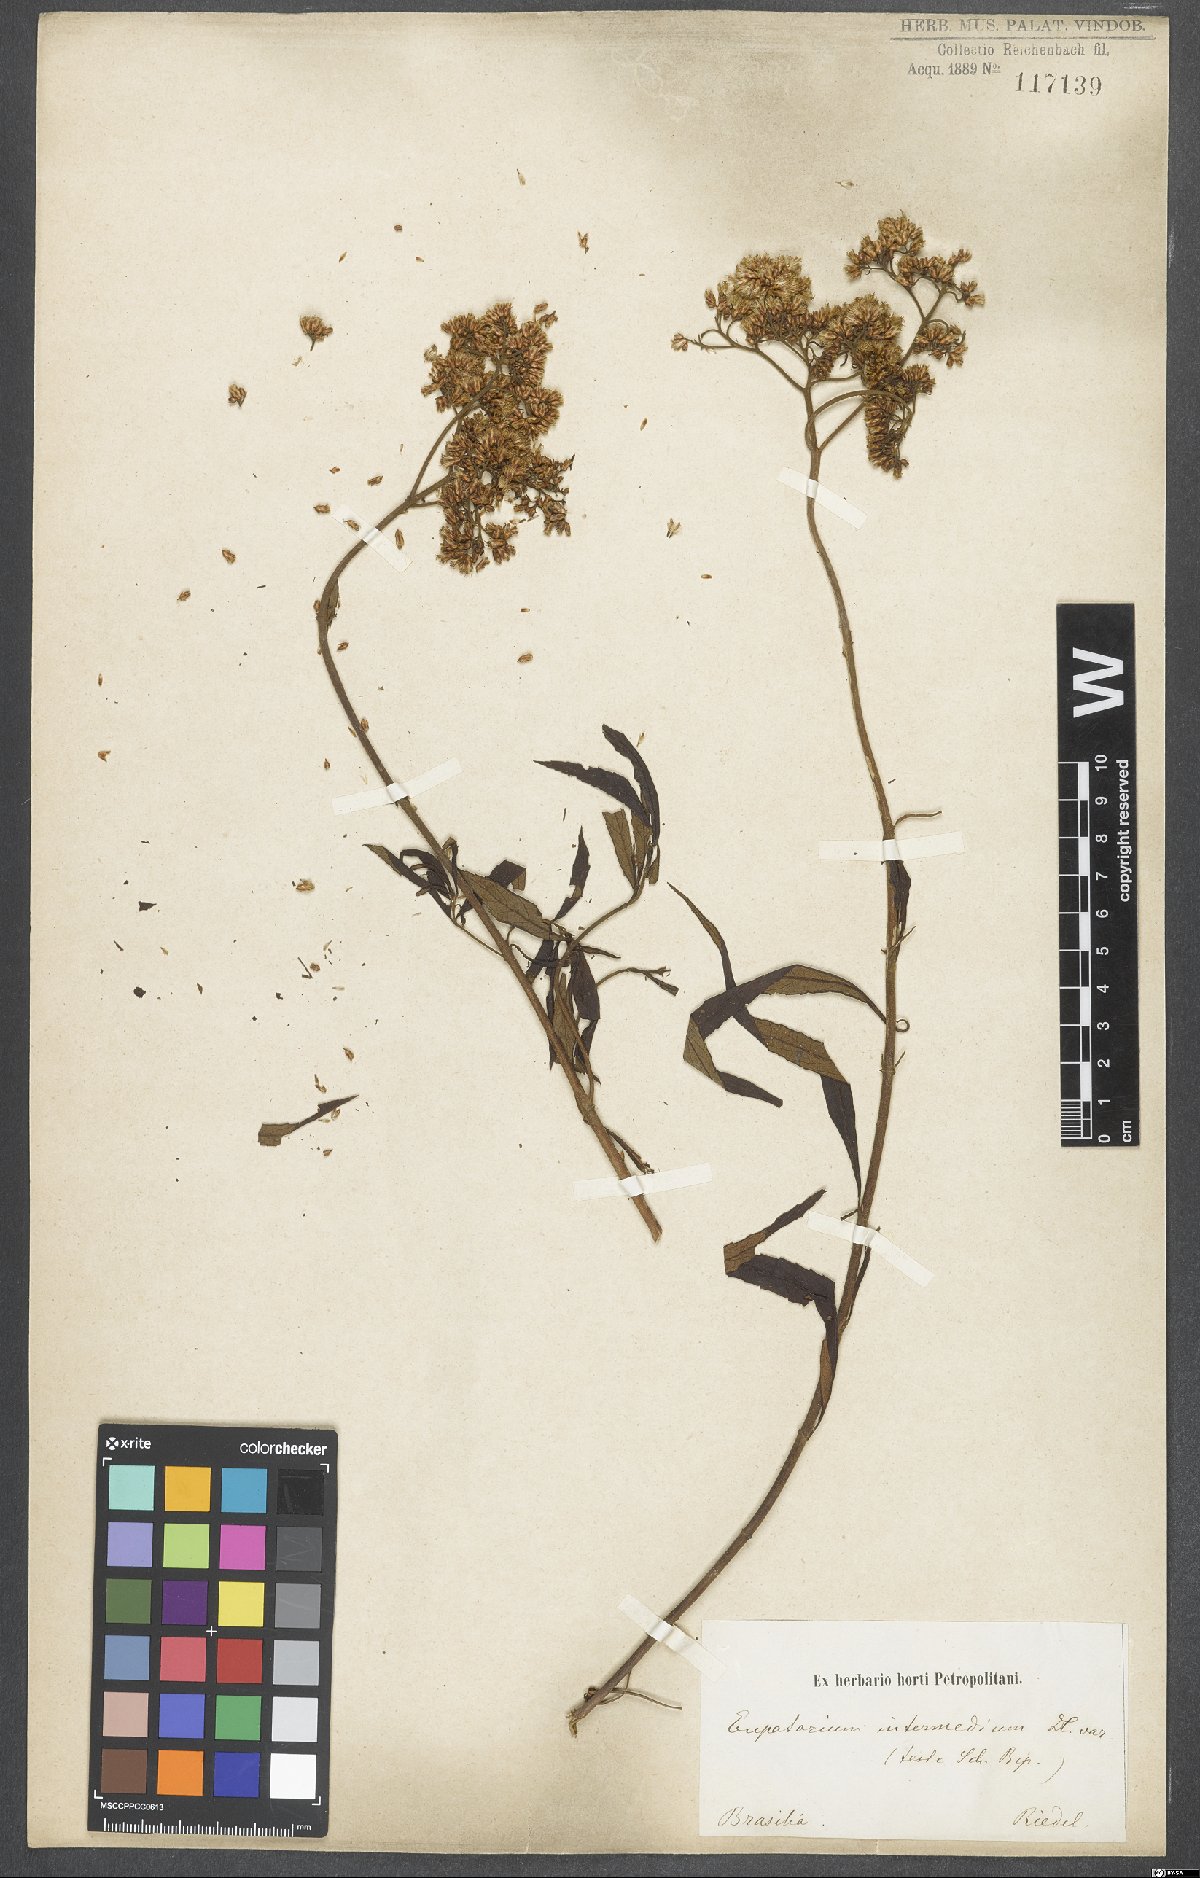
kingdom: Plantae
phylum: Tracheophyta
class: Magnoliopsida
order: Asterales
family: Asteraceae
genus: Grazielia
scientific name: Grazielia intermedia
